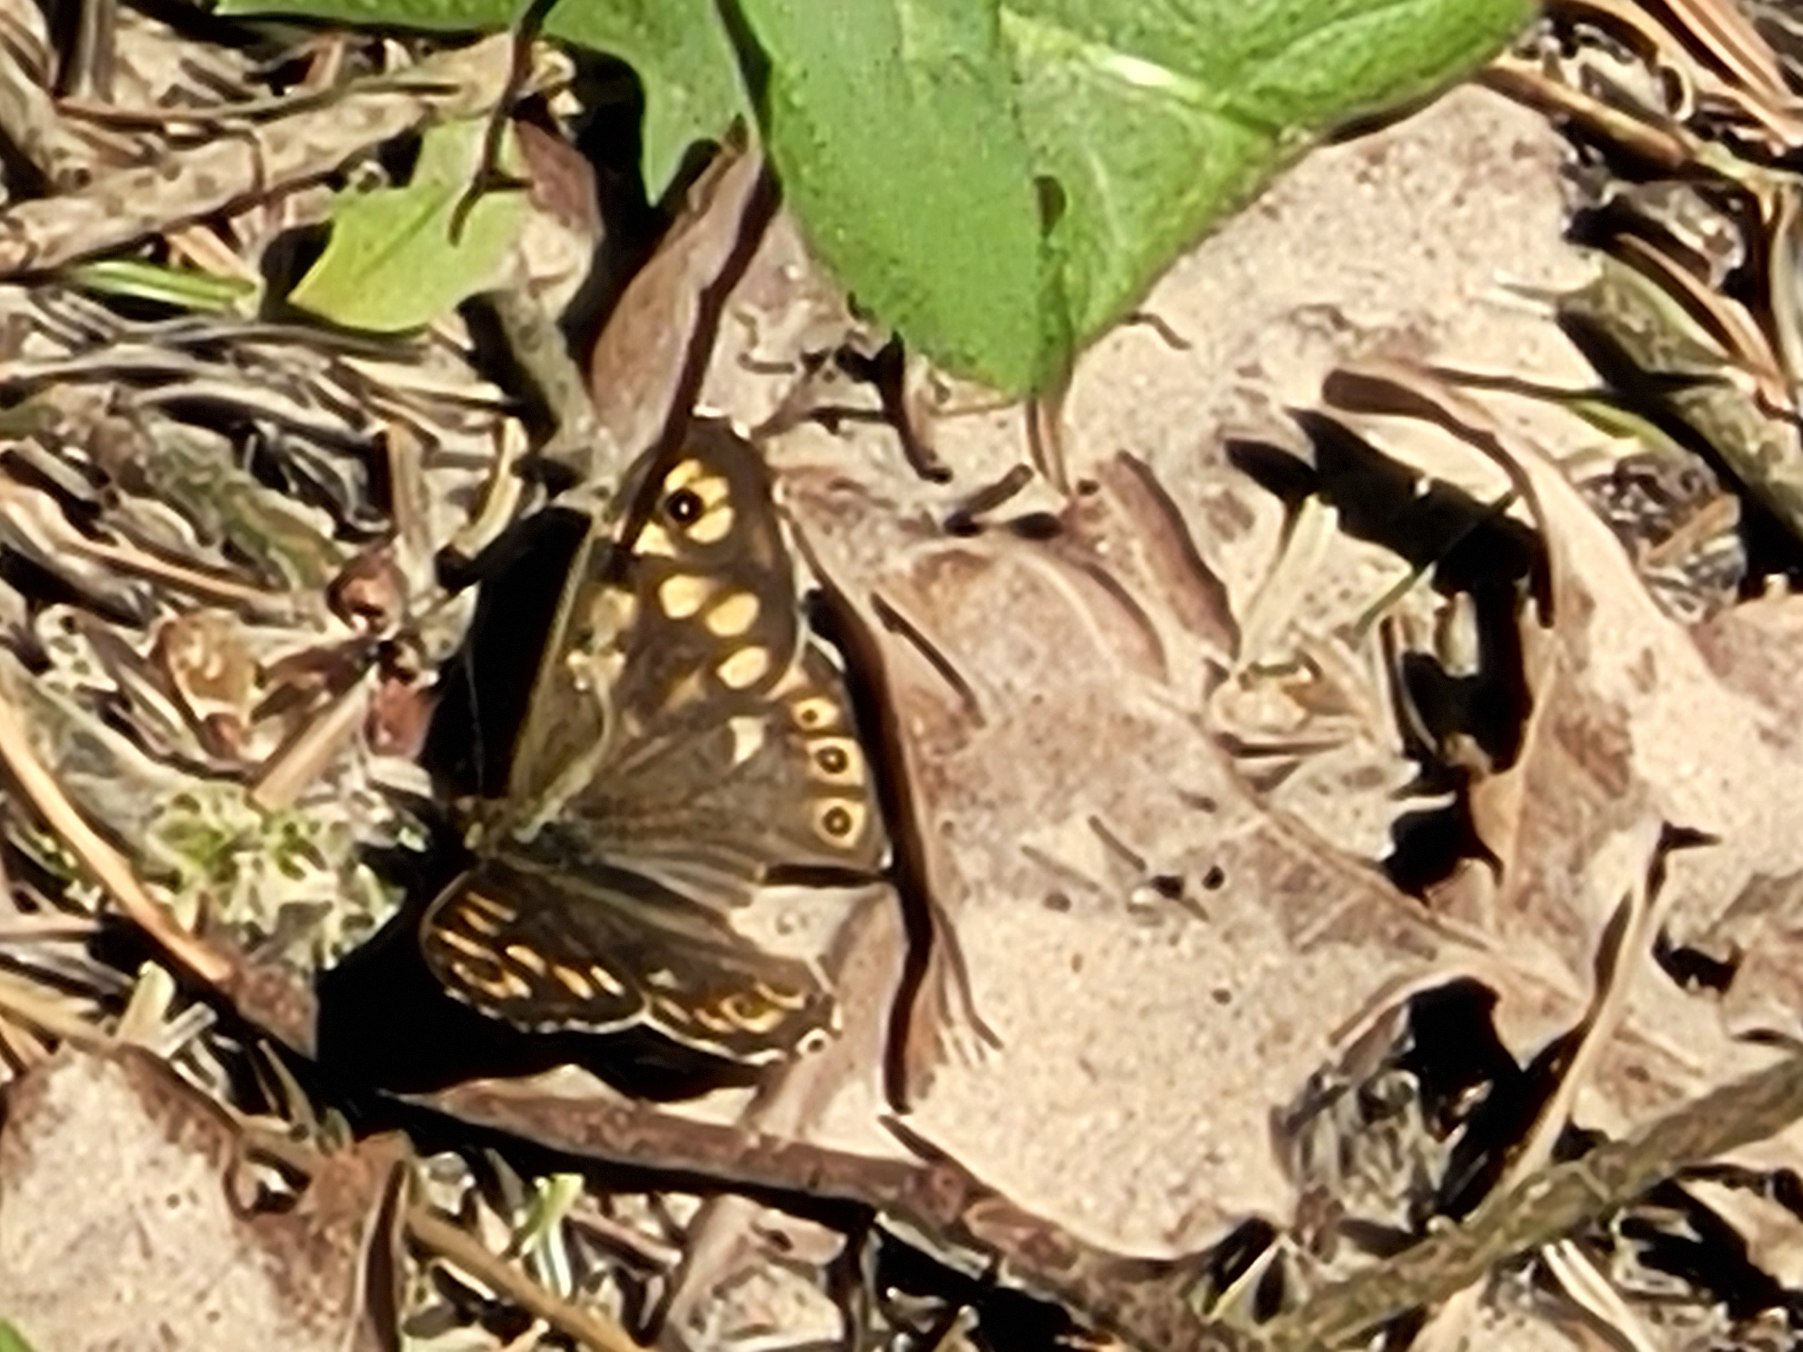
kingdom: Animalia
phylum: Arthropoda
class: Insecta
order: Lepidoptera
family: Nymphalidae
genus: Pararge
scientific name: Pararge aegeria
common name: Skovrandøje
